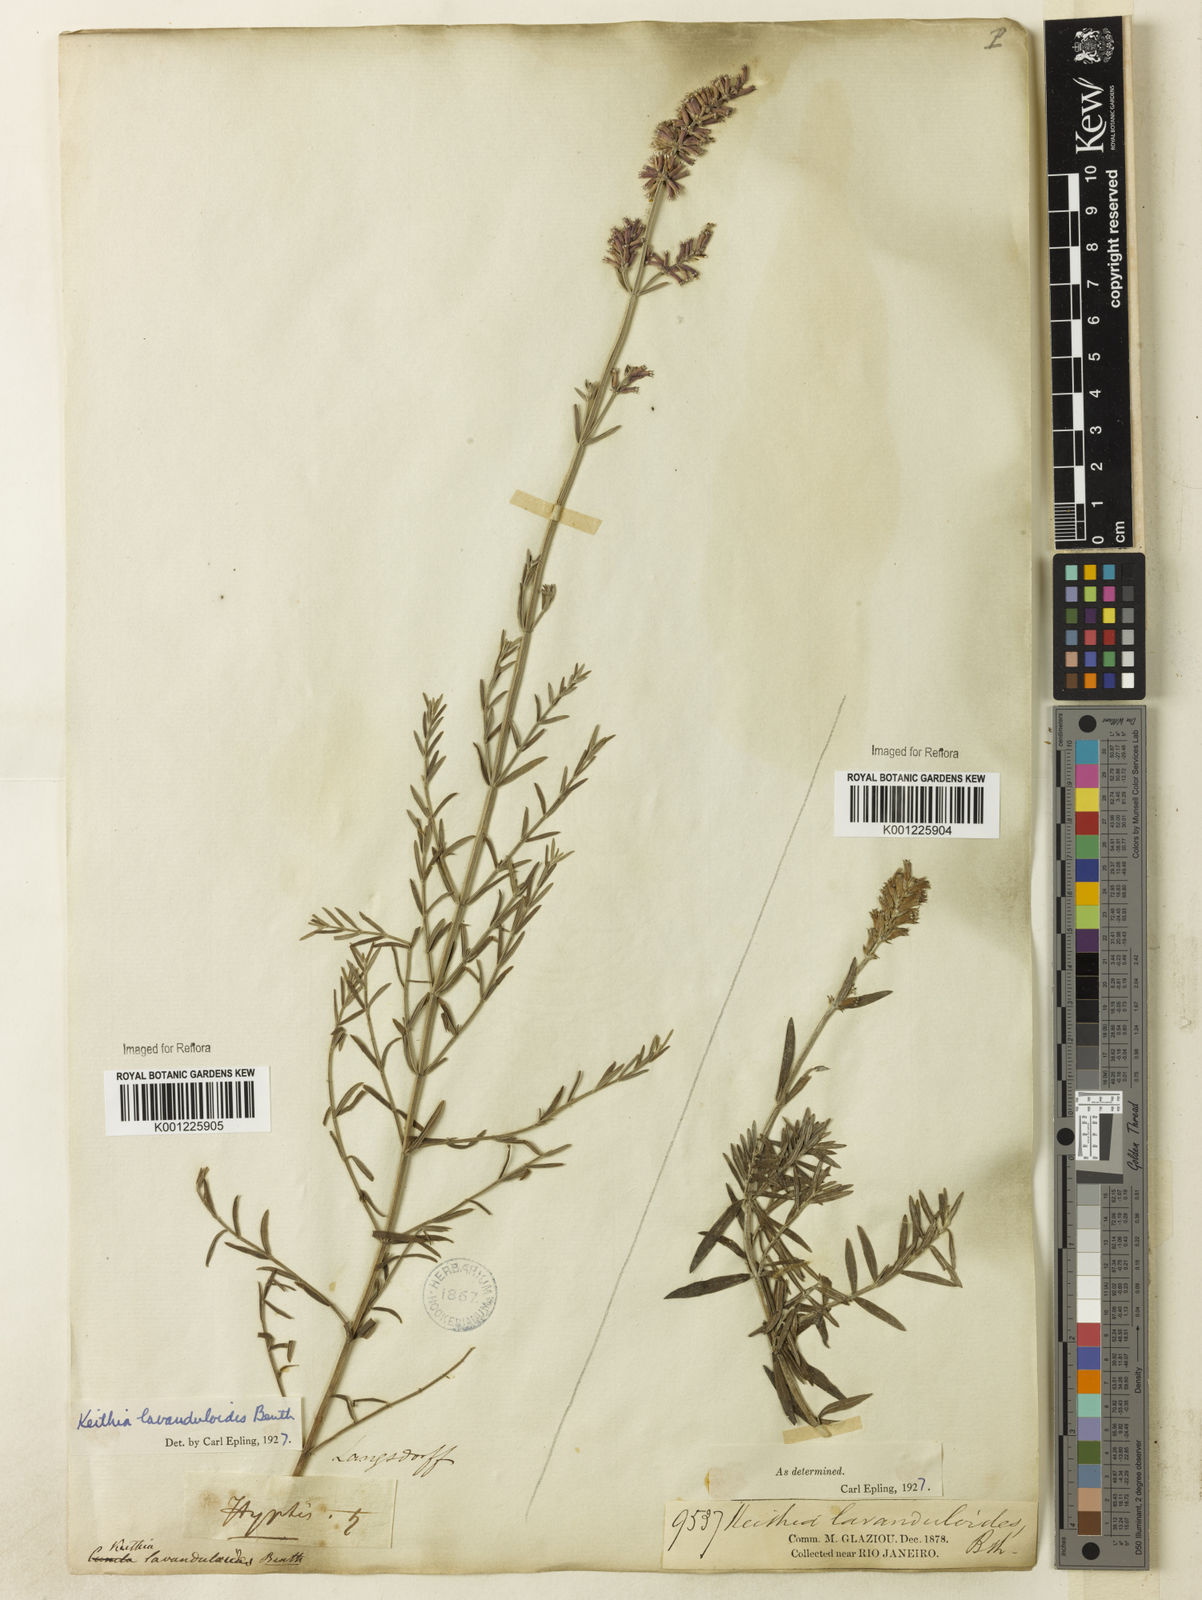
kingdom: Plantae
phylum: Tracheophyta
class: Magnoliopsida
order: Lamiales
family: Lamiaceae
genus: Rhabdocaulon
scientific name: Rhabdocaulon lavanduloides
